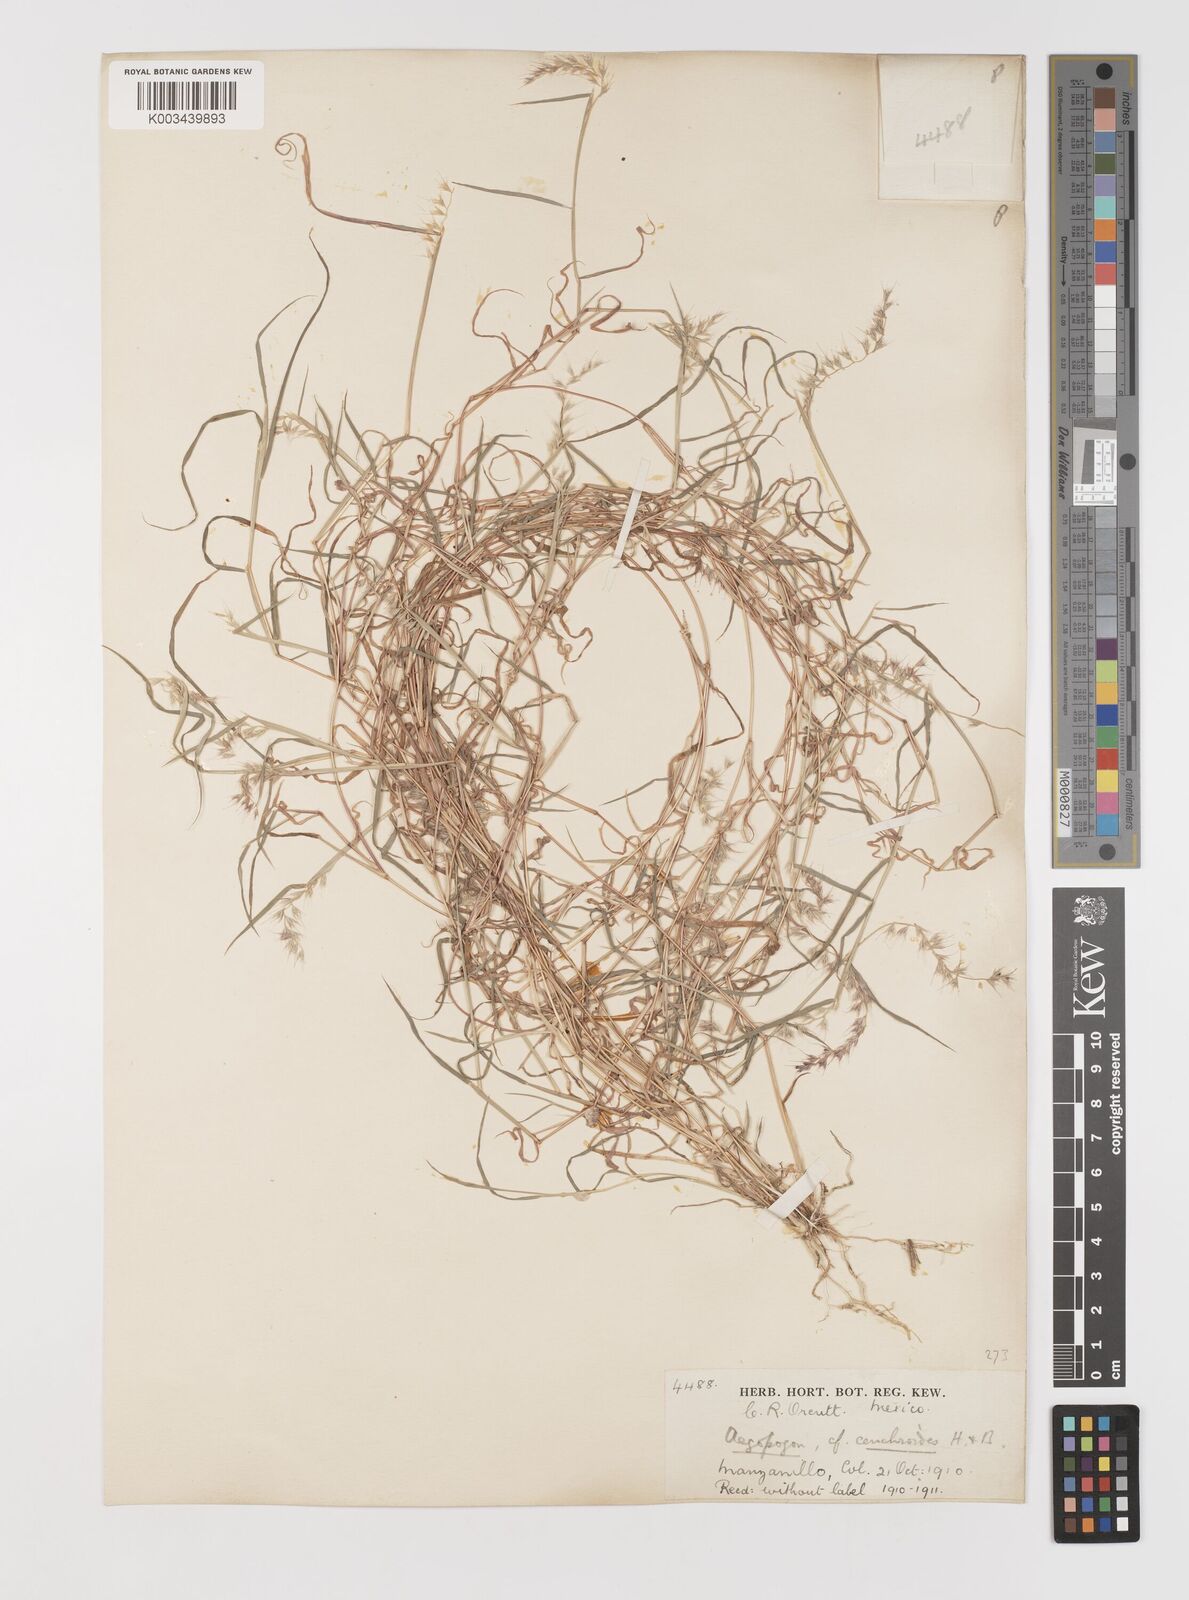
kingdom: Plantae
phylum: Tracheophyta
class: Liliopsida
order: Poales
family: Poaceae
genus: Muhlenbergia
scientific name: Muhlenbergia cenchroides
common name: Relaxgrass
